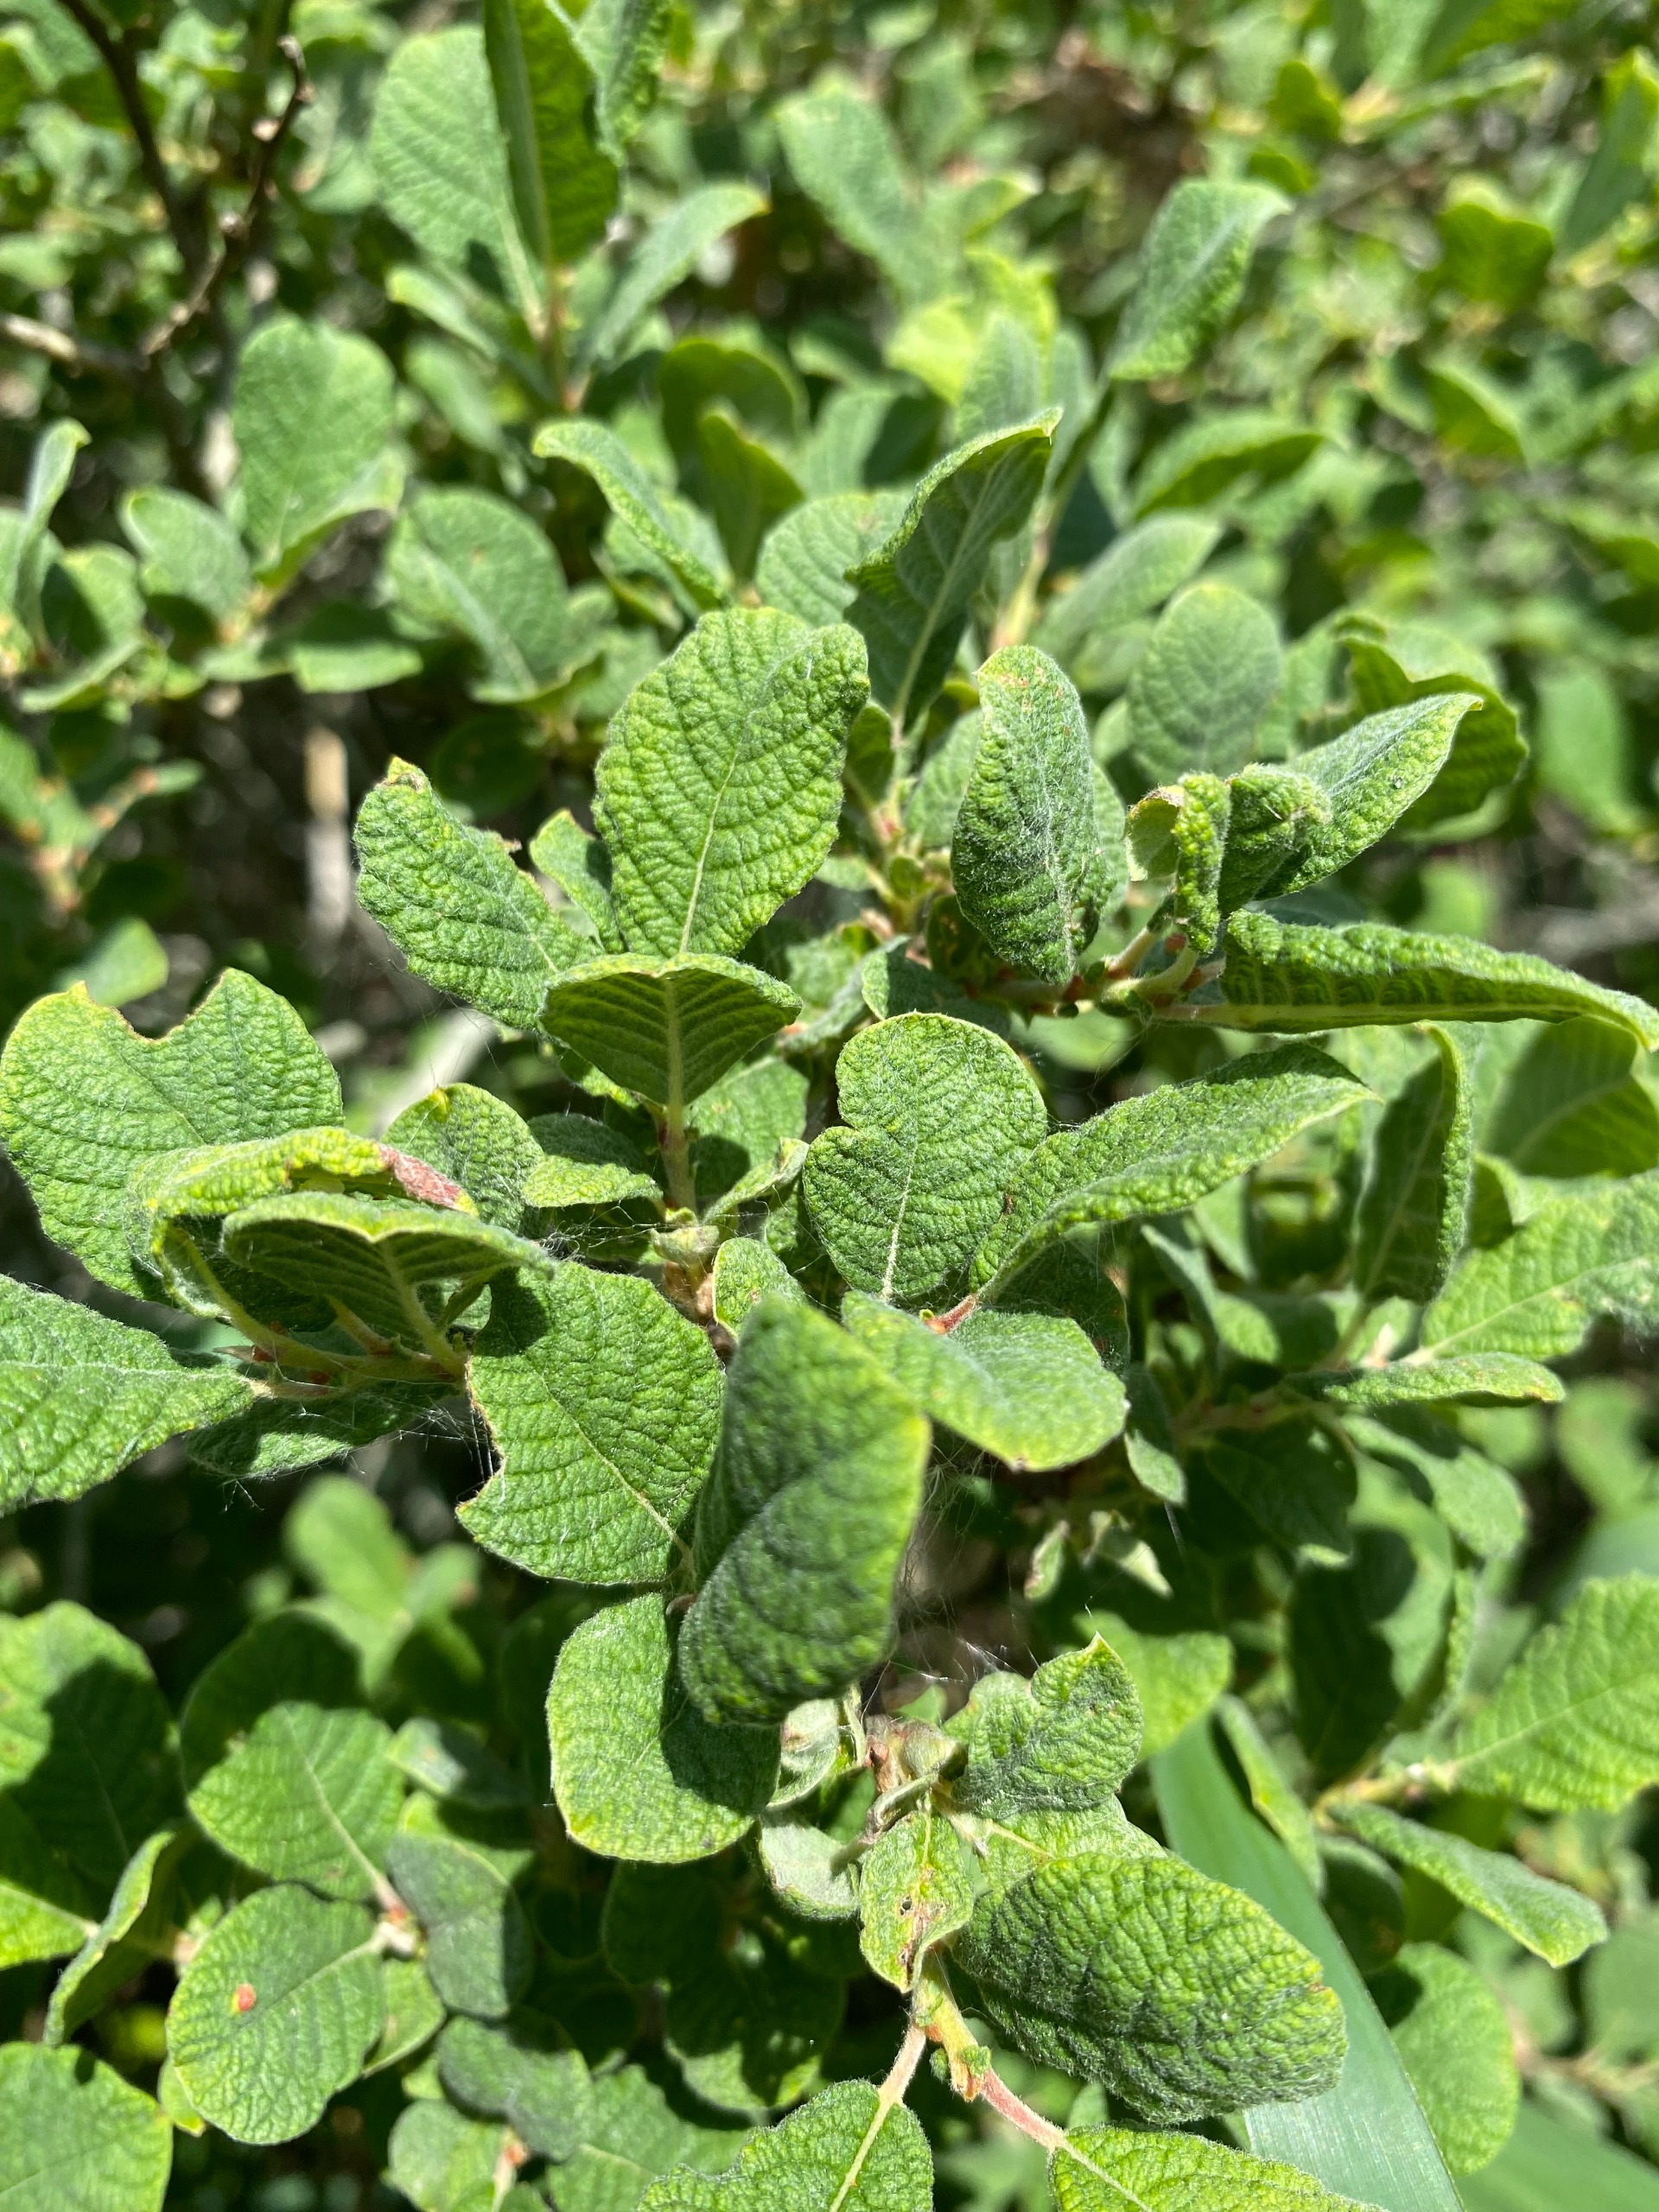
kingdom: Plantae
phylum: Tracheophyta
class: Magnoliopsida
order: Malpighiales
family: Salicaceae
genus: Salix
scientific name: Salix aurita
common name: Øret pil
